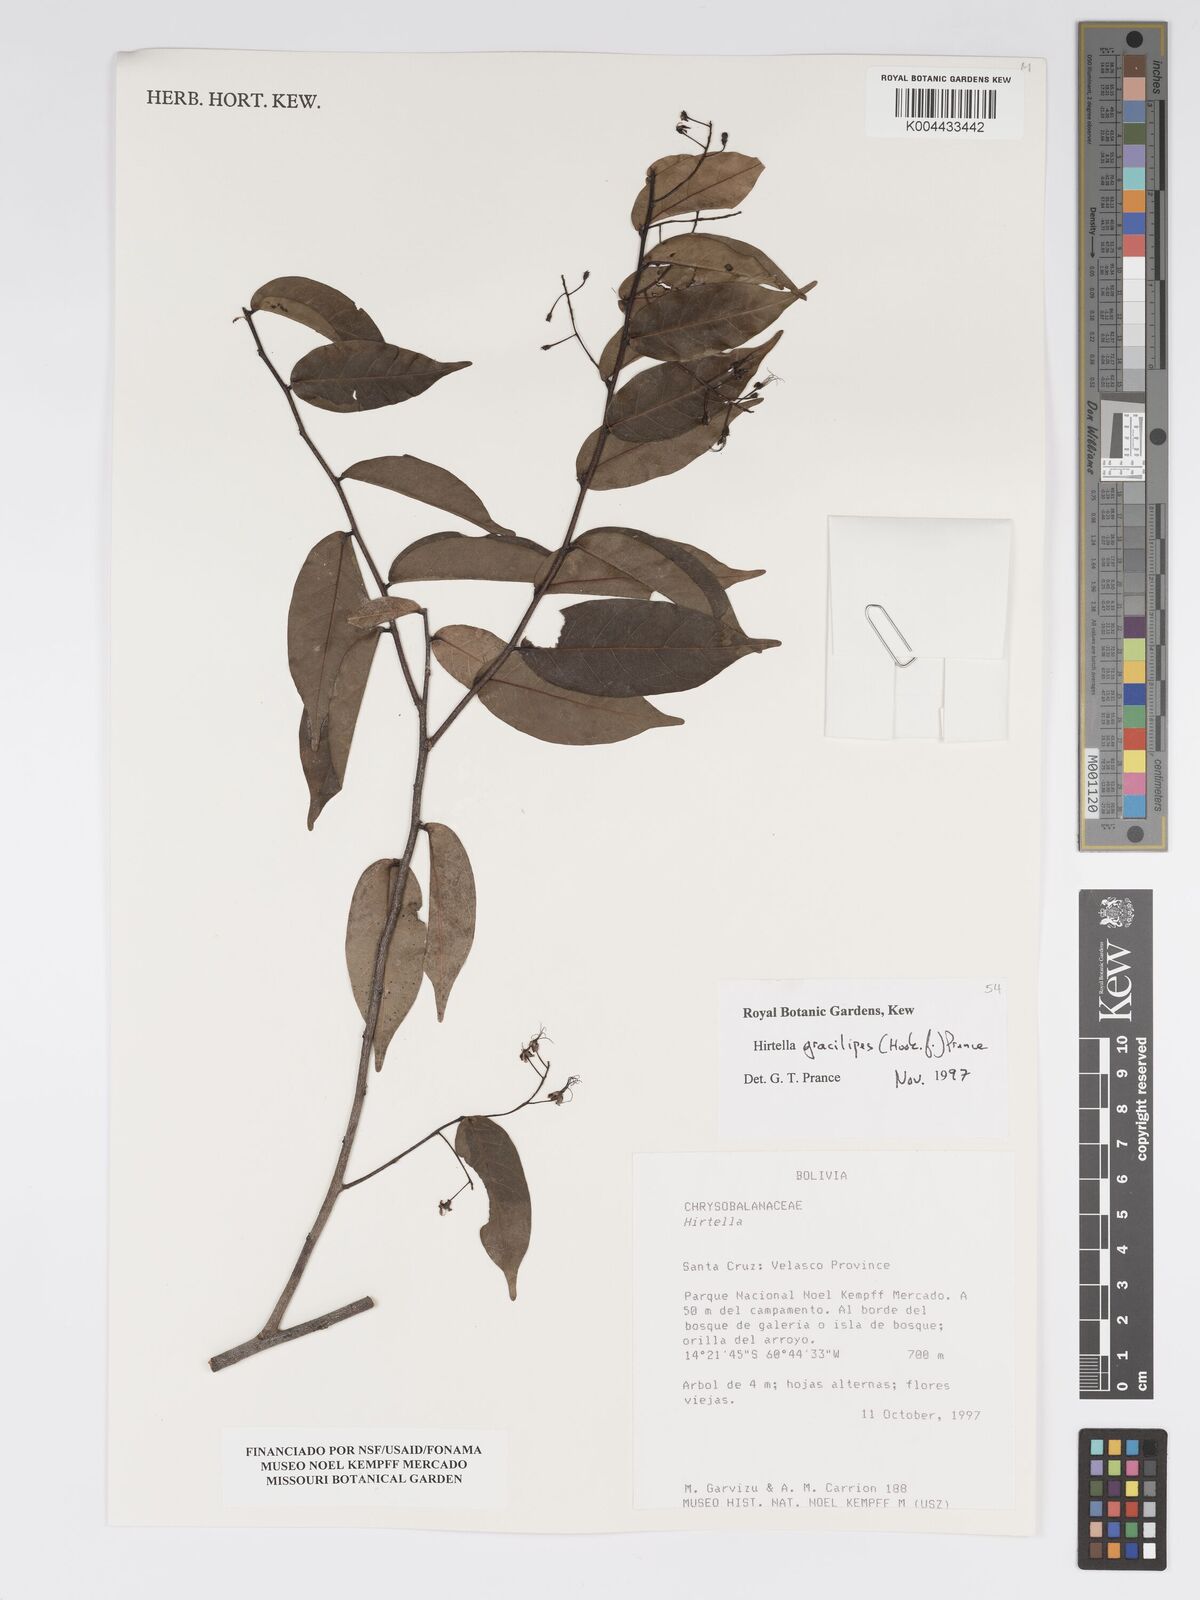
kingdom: Plantae
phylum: Tracheophyta
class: Magnoliopsida
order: Malpighiales
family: Chrysobalanaceae
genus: Hirtella
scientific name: Hirtella gracilipes
